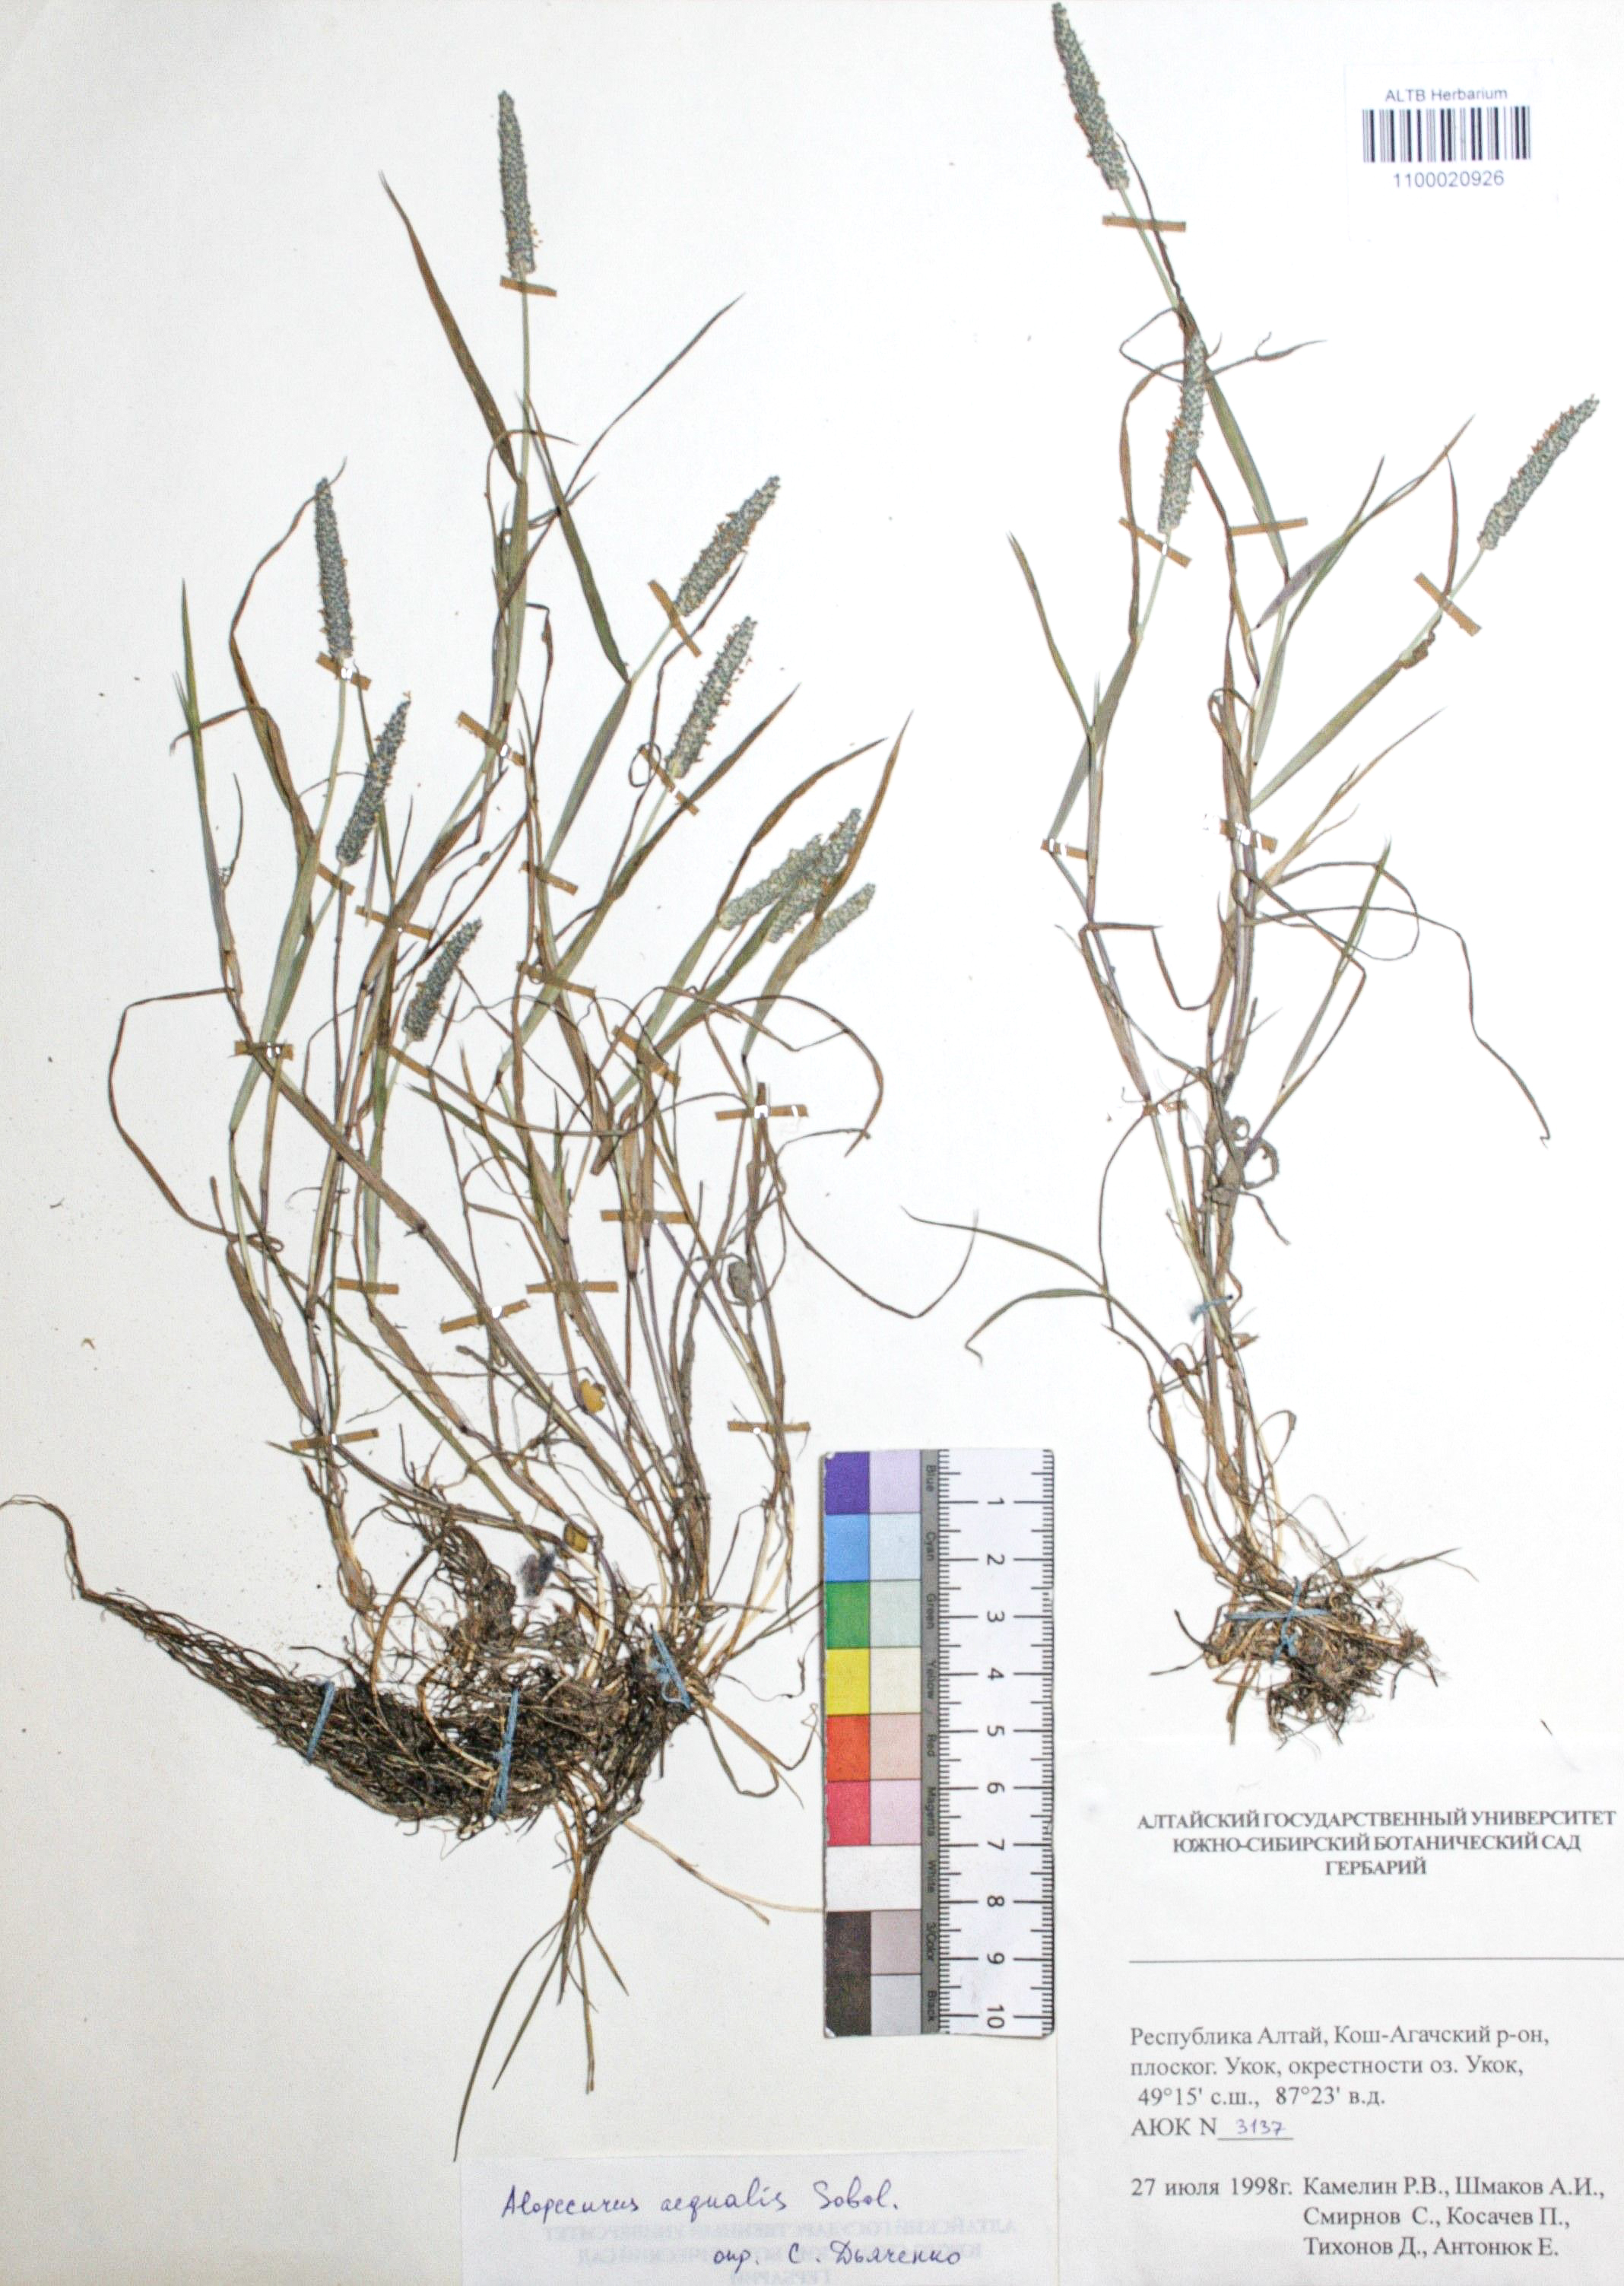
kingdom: Plantae
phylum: Tracheophyta
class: Liliopsida
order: Poales
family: Poaceae
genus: Alopecurus
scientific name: Alopecurus aequalis
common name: Orange foxtail
